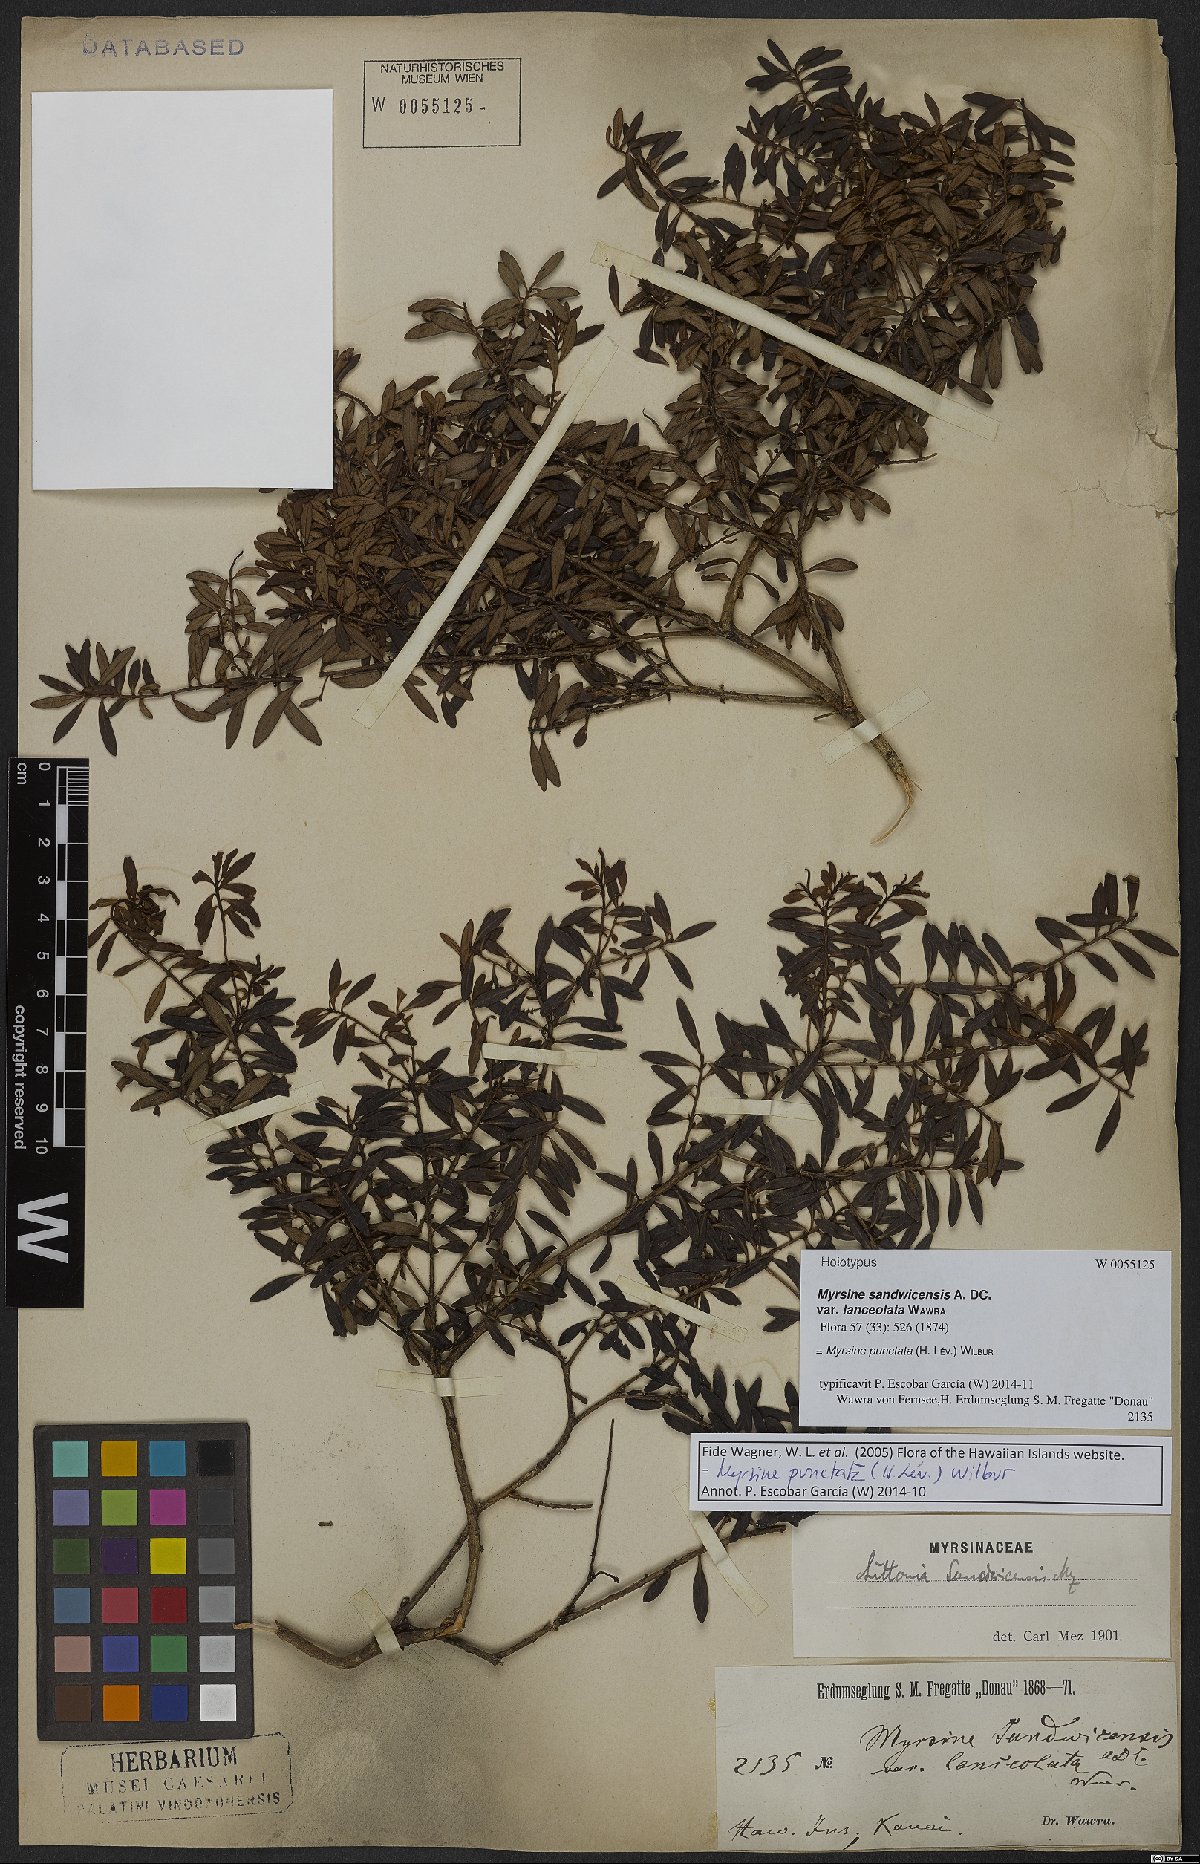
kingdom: Plantae
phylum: Tracheophyta
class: Magnoliopsida
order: Ericales
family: Primulaceae
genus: Myrsine
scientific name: Myrsine punctata
